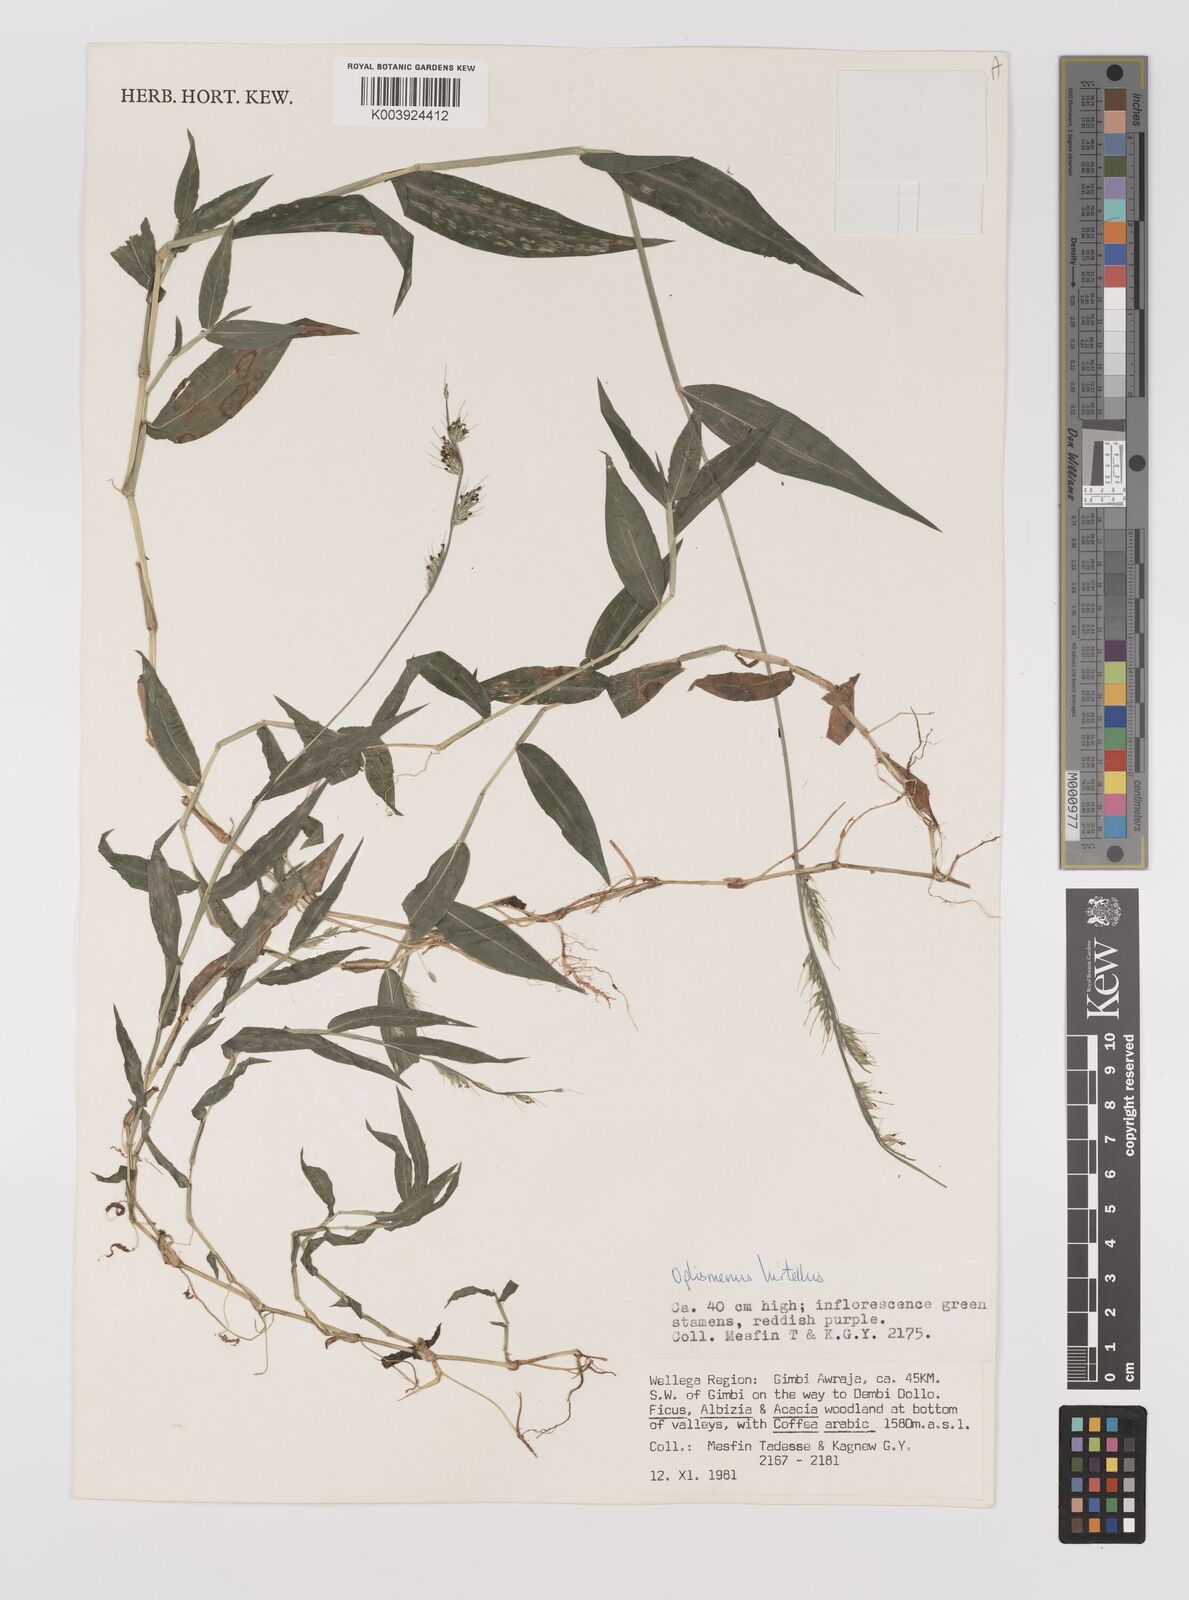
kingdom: Plantae
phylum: Tracheophyta
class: Liliopsida
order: Poales
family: Poaceae
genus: Oplismenus
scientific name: Oplismenus hirtellus
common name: Basketgrass
